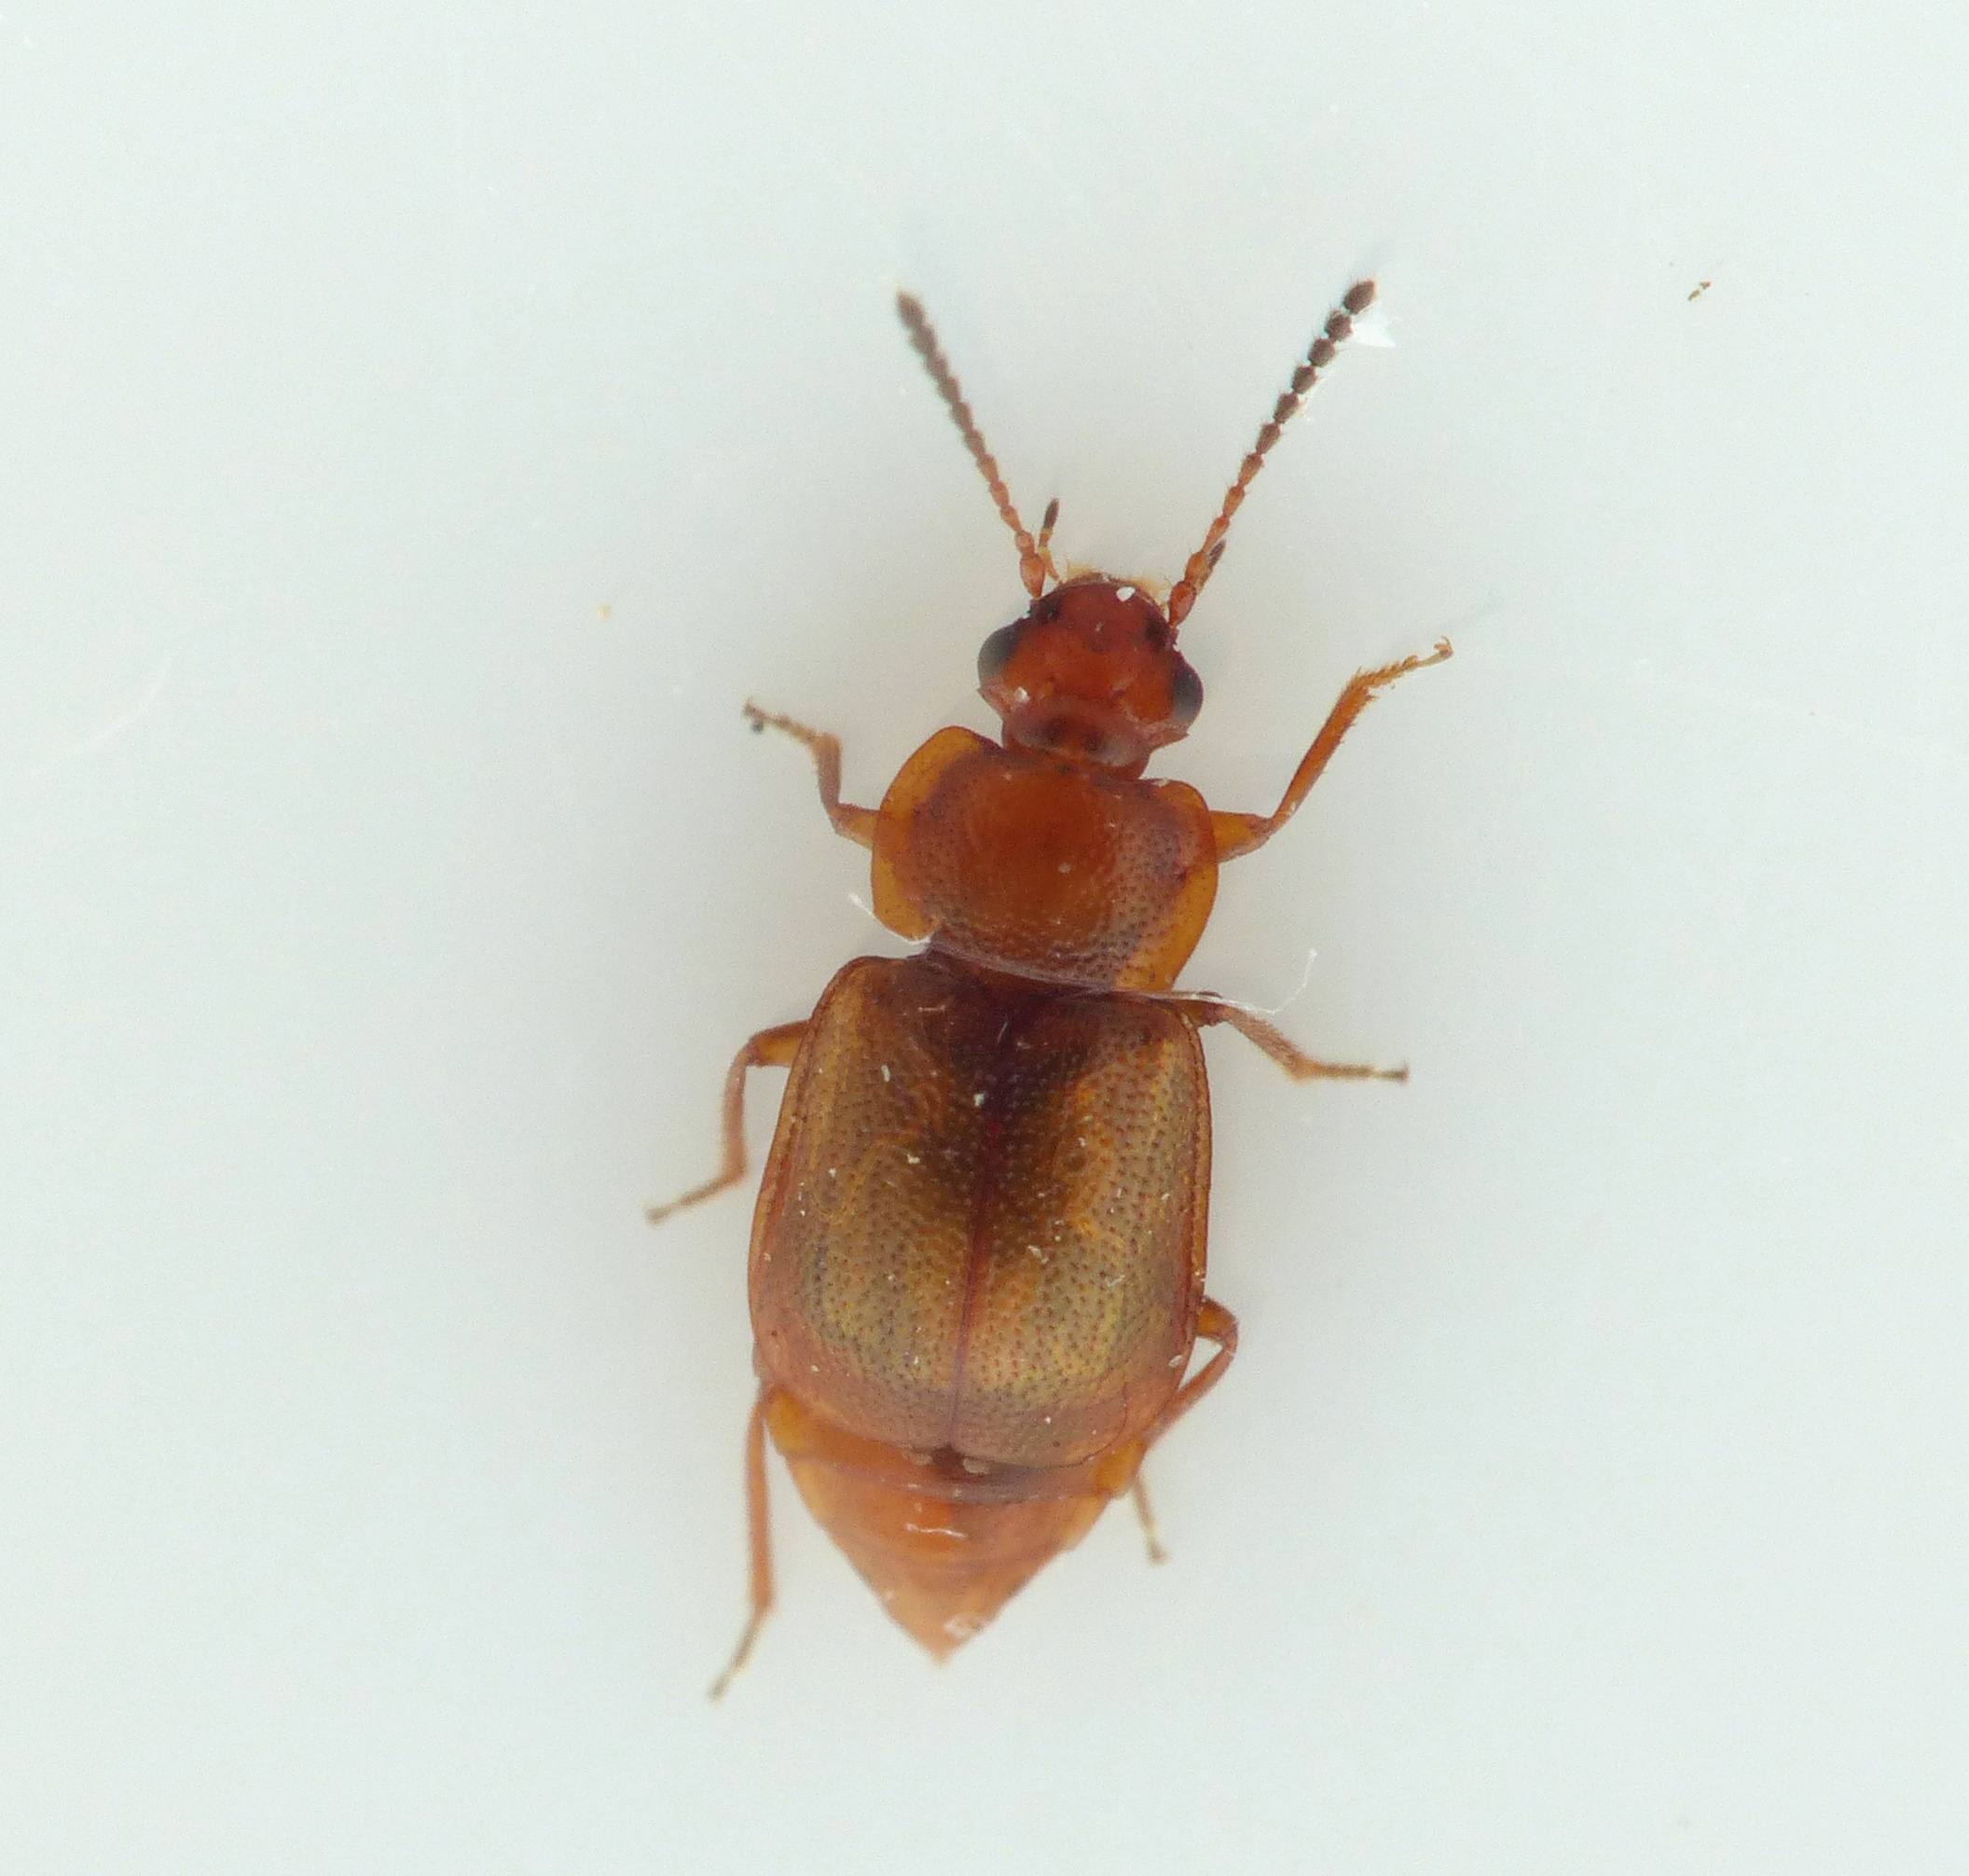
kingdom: Animalia
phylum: Arthropoda
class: Insecta
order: Coleoptera
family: Staphylinidae
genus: Anthobium
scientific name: Anthobium unicolor
